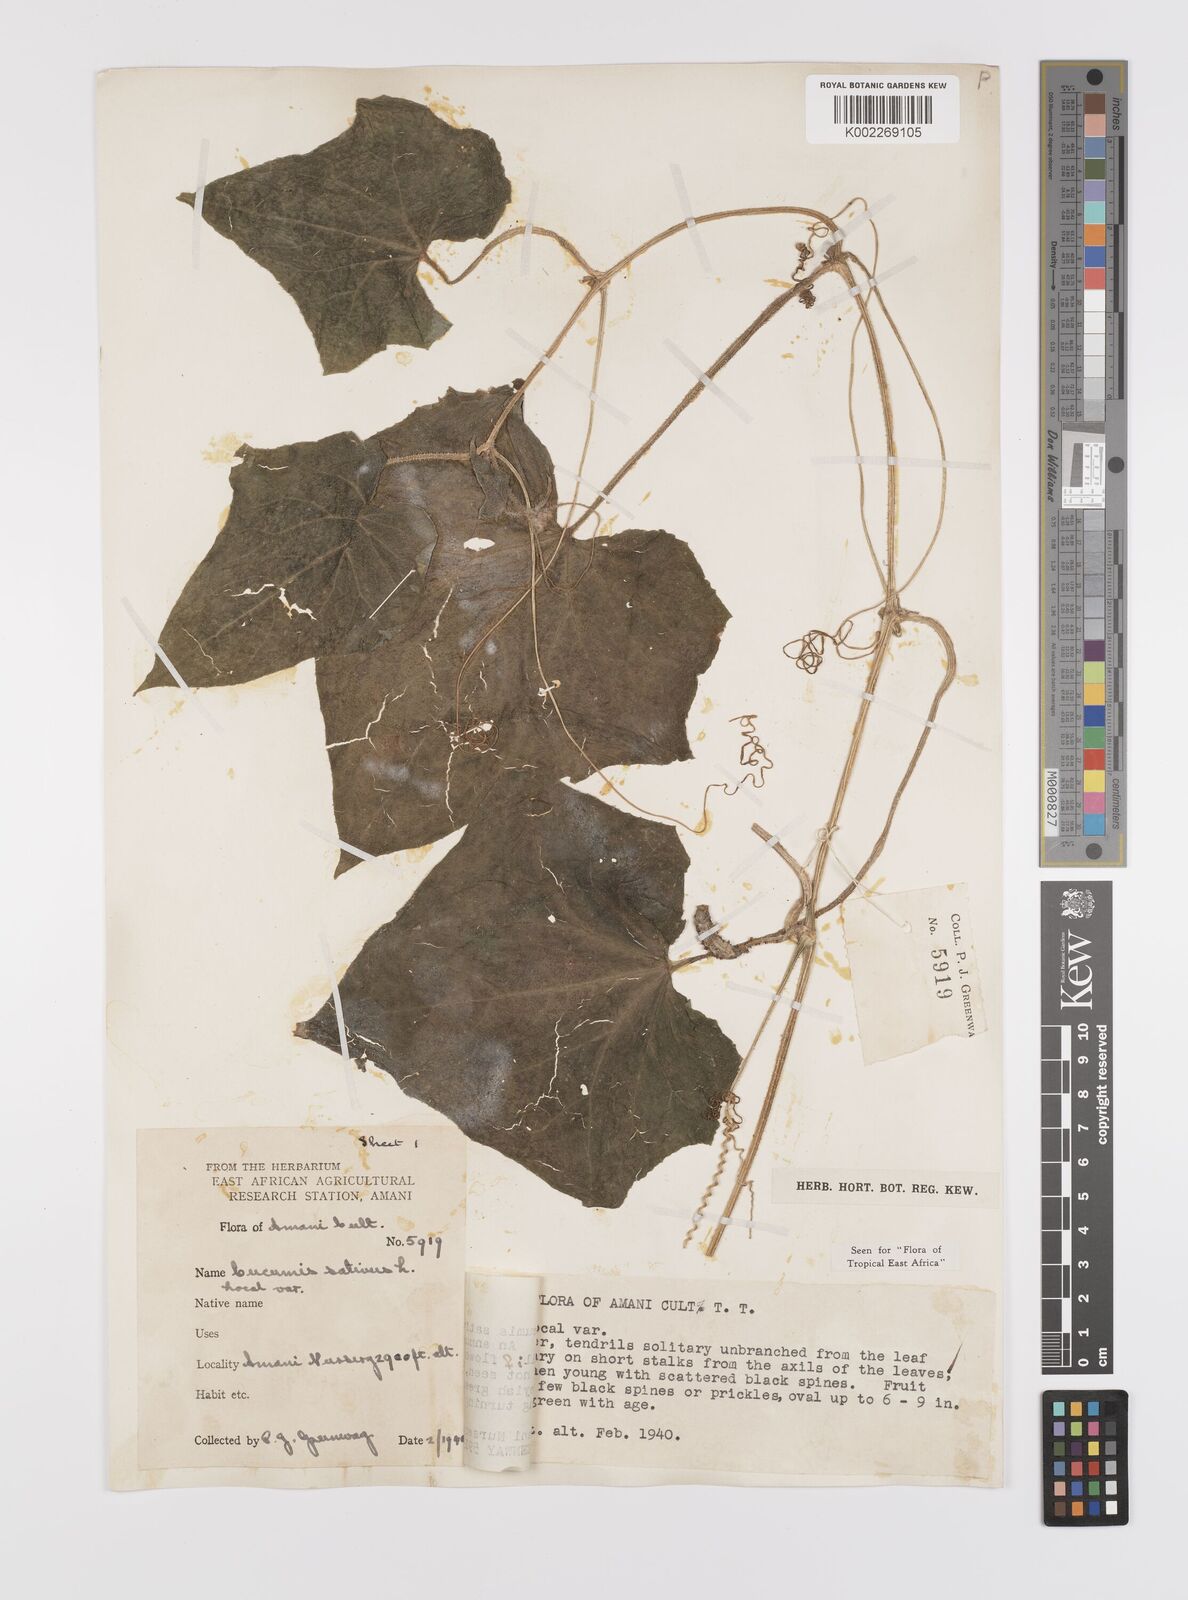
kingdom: Plantae
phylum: Tracheophyta
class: Magnoliopsida
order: Cucurbitales
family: Cucurbitaceae
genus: Cucumis
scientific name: Cucumis sativus
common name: Cucumber
